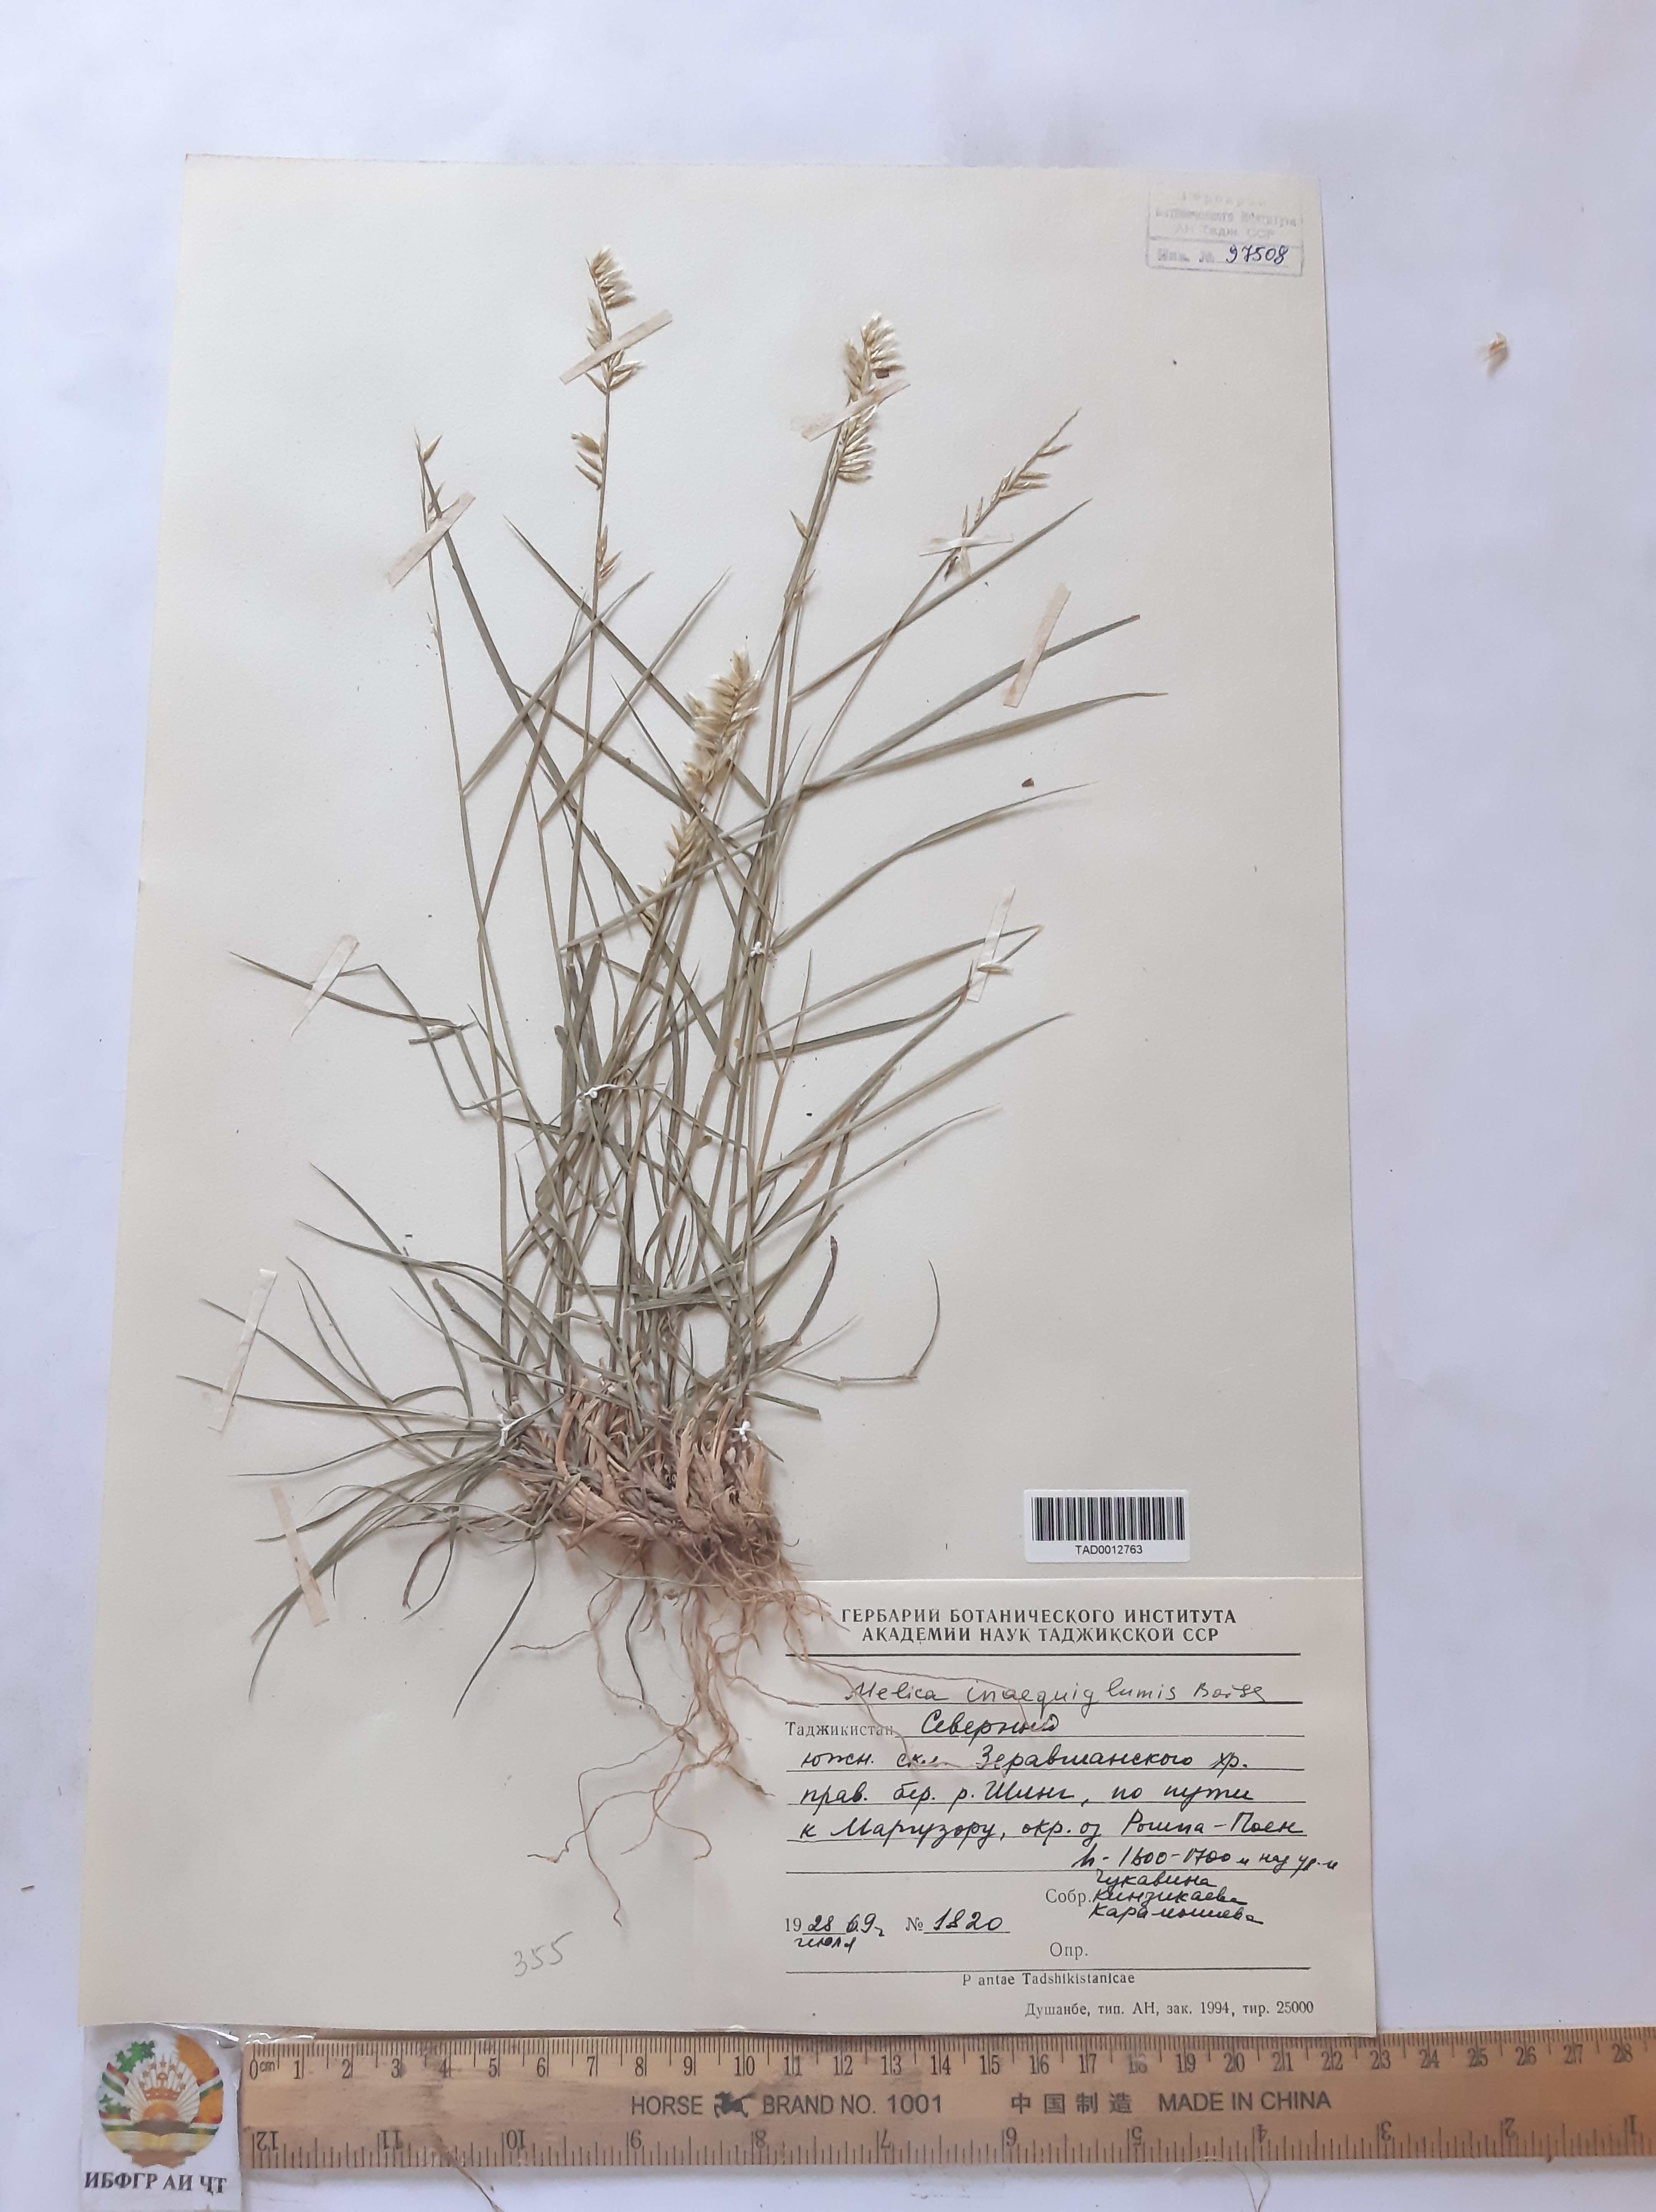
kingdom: Plantae
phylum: Tracheophyta
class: Liliopsida
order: Poales
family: Poaceae
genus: Melica
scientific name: Melica persica
